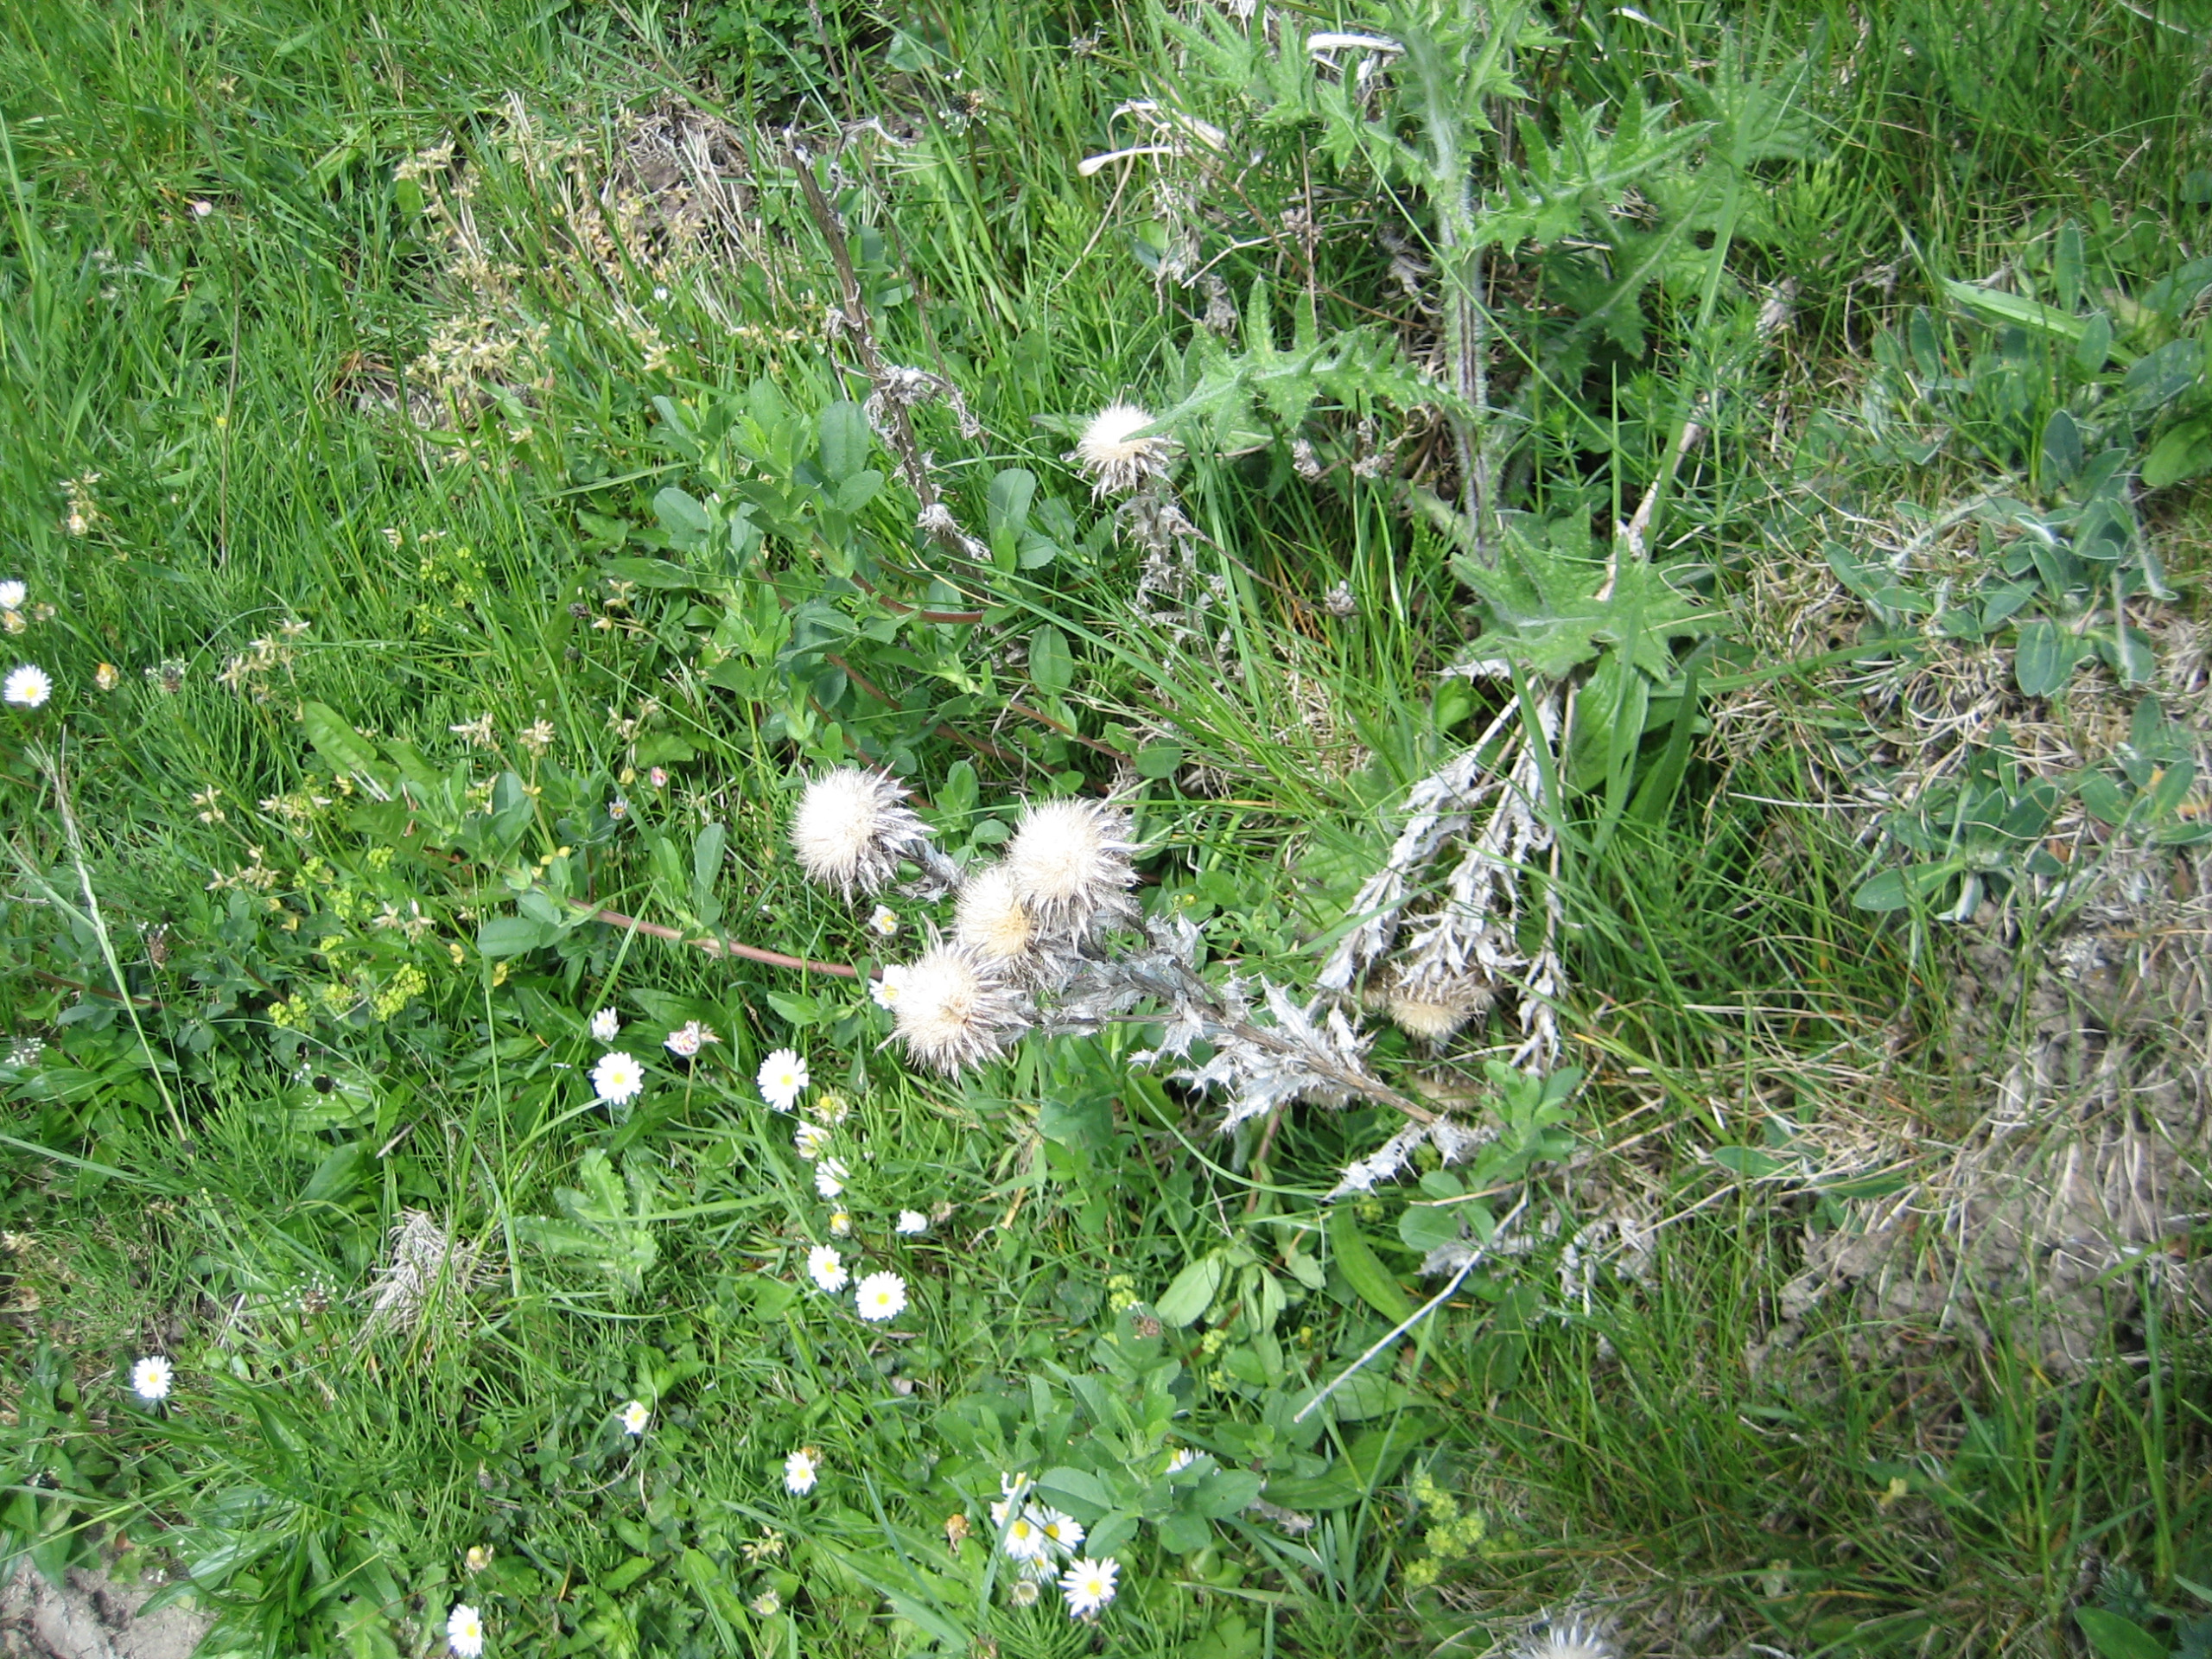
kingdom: Plantae
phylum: Tracheophyta
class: Magnoliopsida
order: Asterales
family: Asteraceae
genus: Carlina
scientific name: Carlina vulgaris
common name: Bakketidsel
